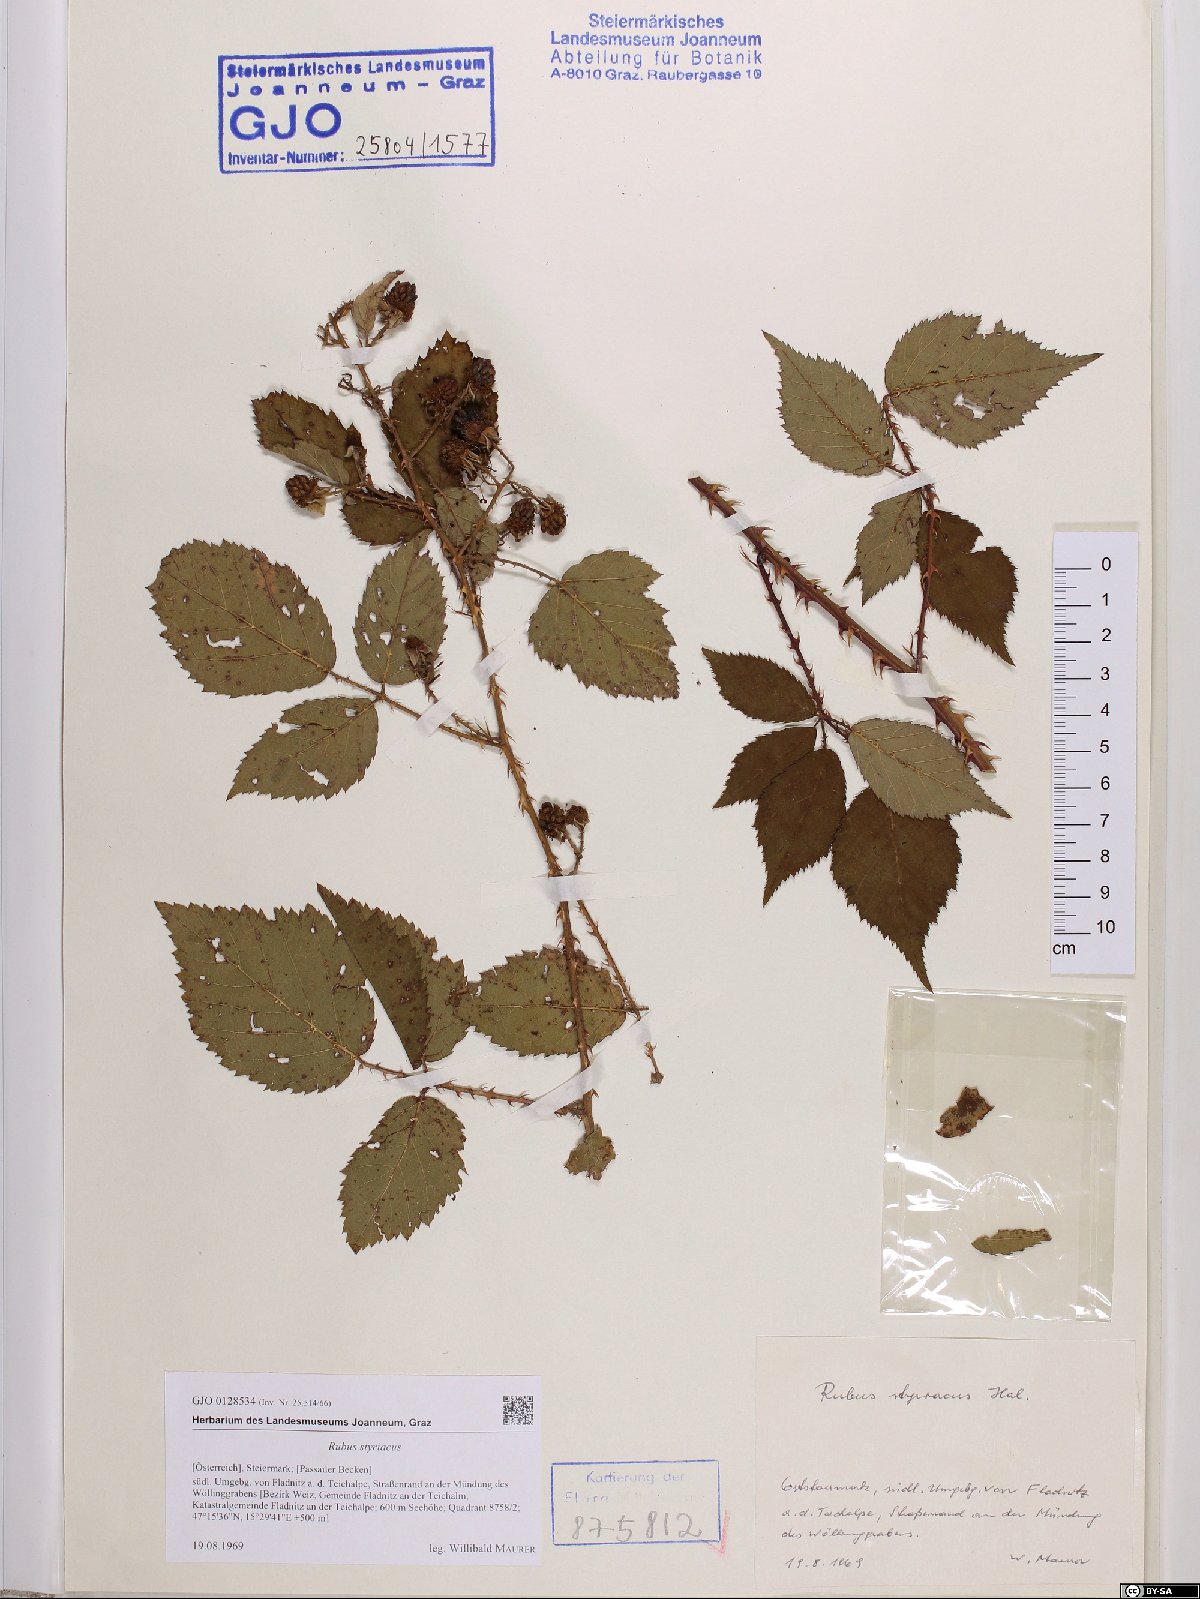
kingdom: Plantae
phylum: Tracheophyta
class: Magnoliopsida
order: Rosales
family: Rosaceae
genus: Rubus
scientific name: Rubus styriacus
